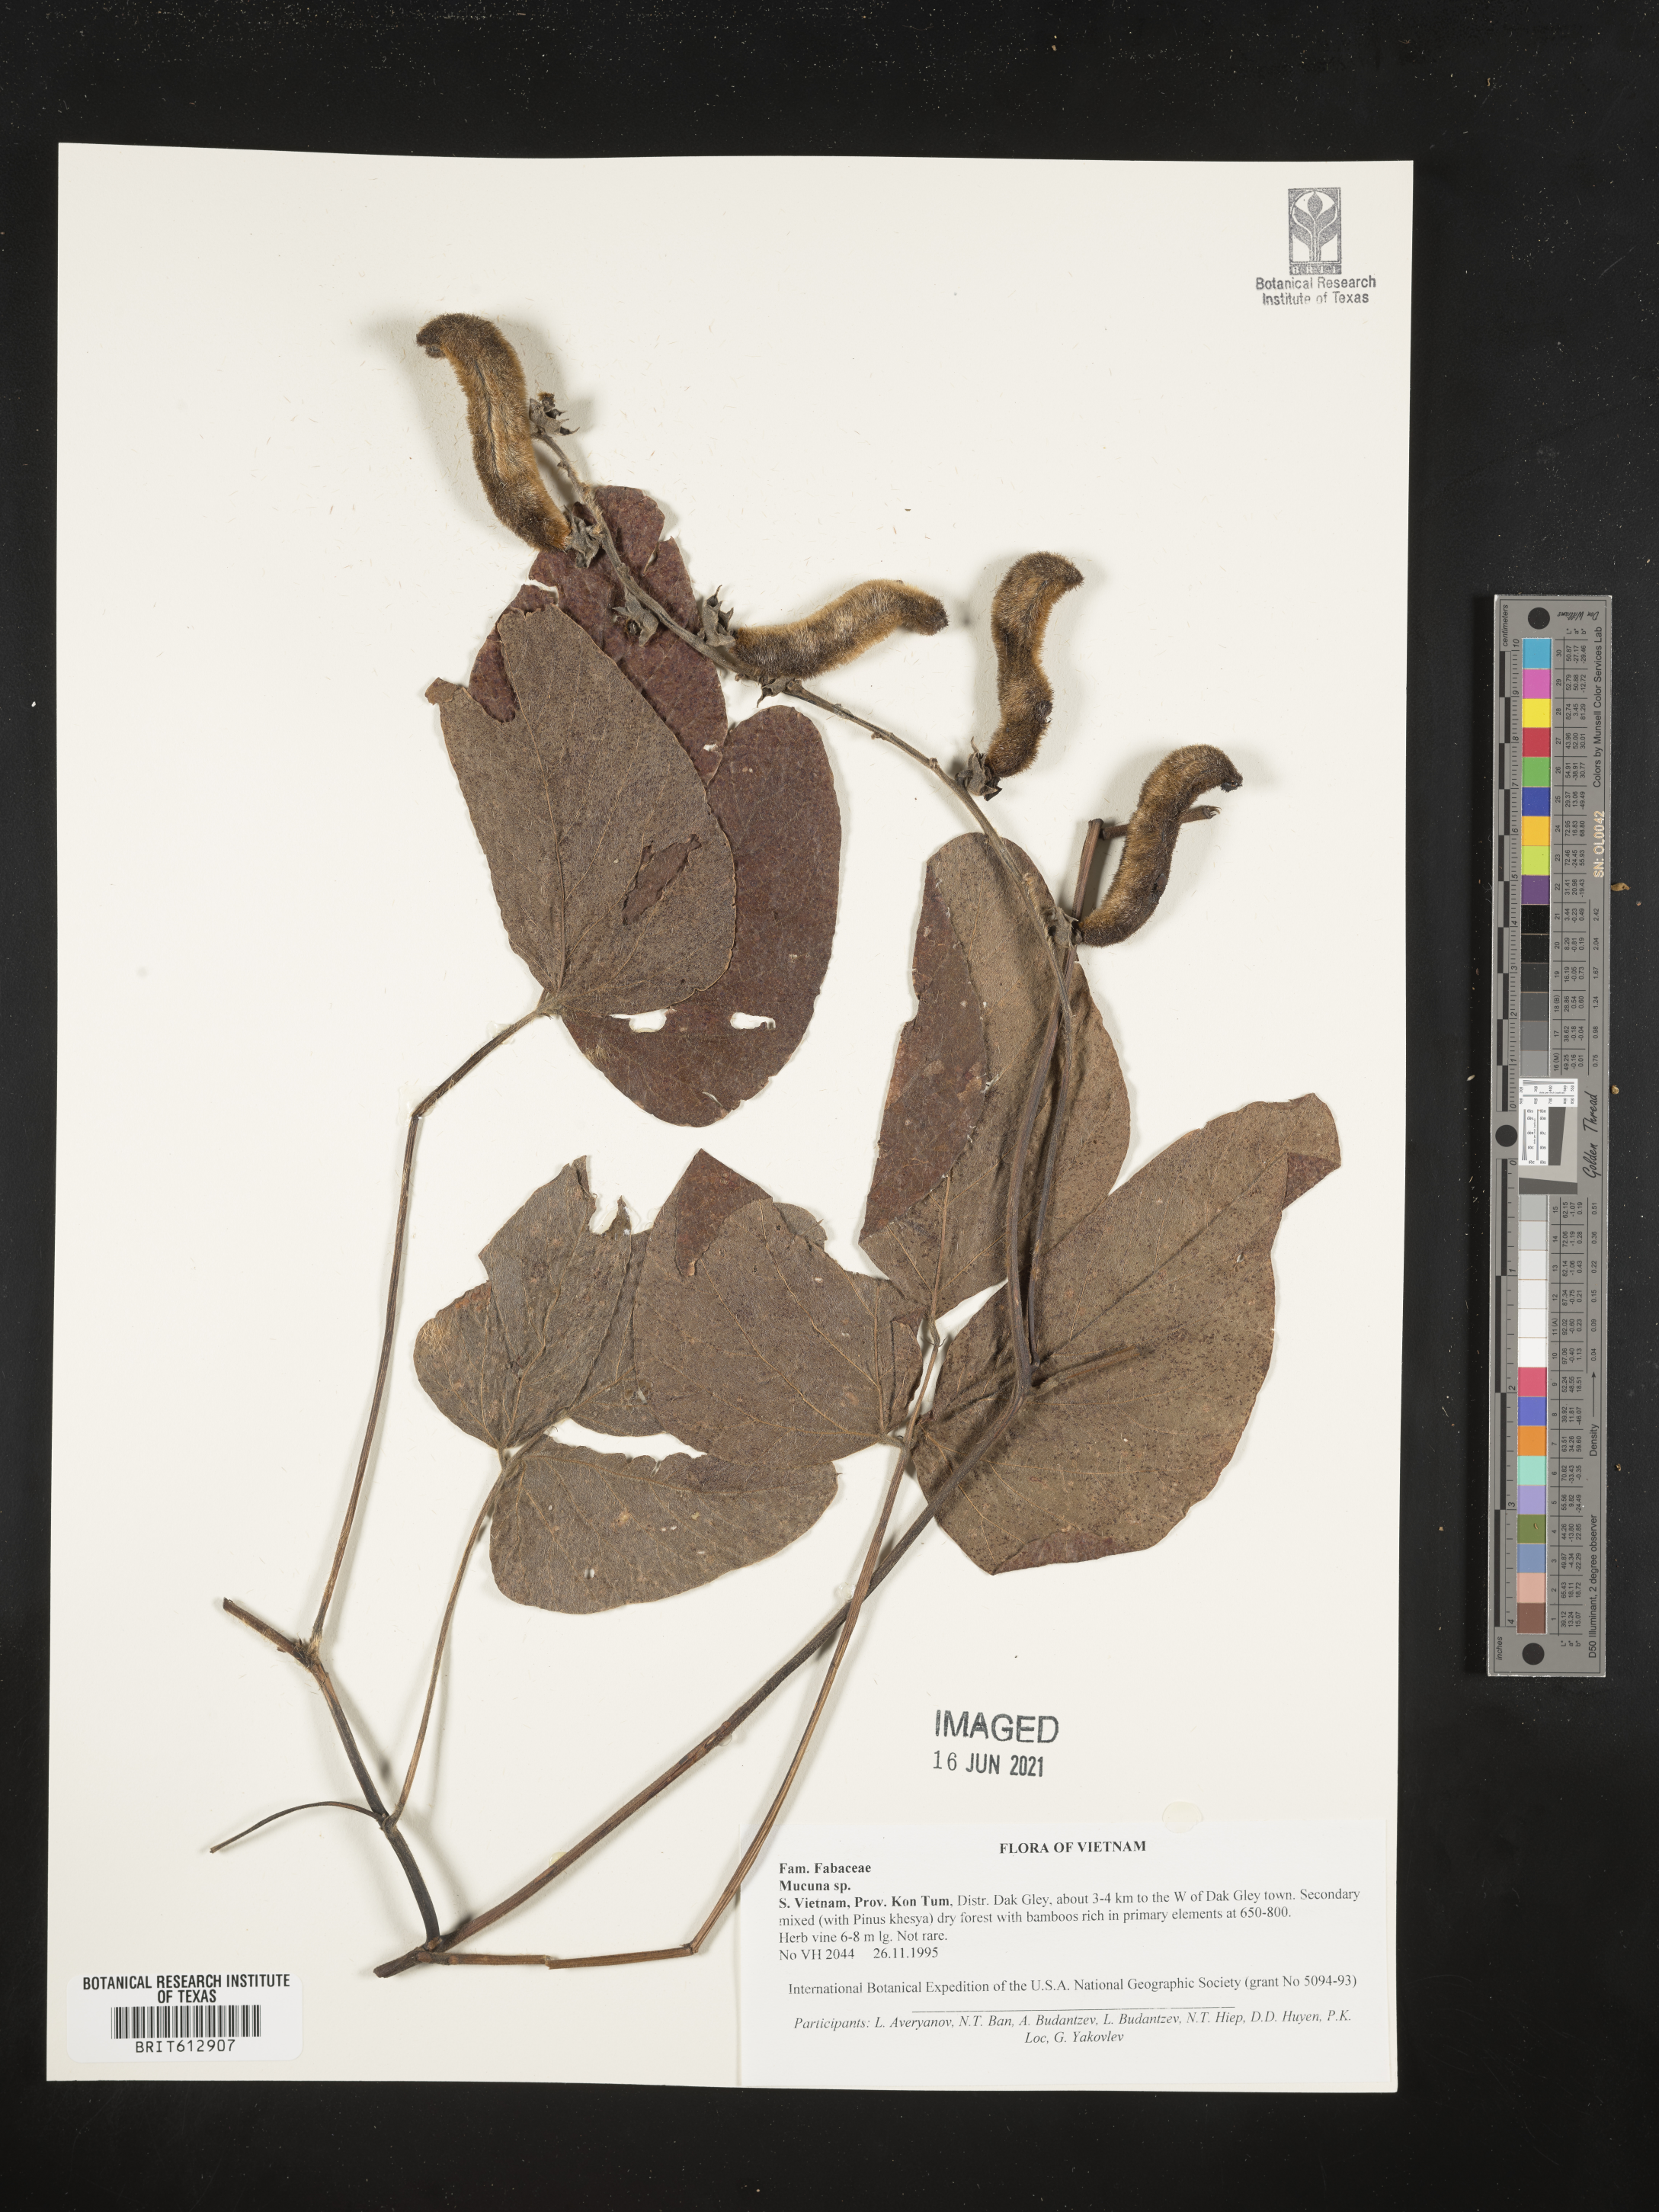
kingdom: Plantae
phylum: Tracheophyta
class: Magnoliopsida
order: Fabales
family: Fabaceae
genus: Mucuna
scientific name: Mucuna
